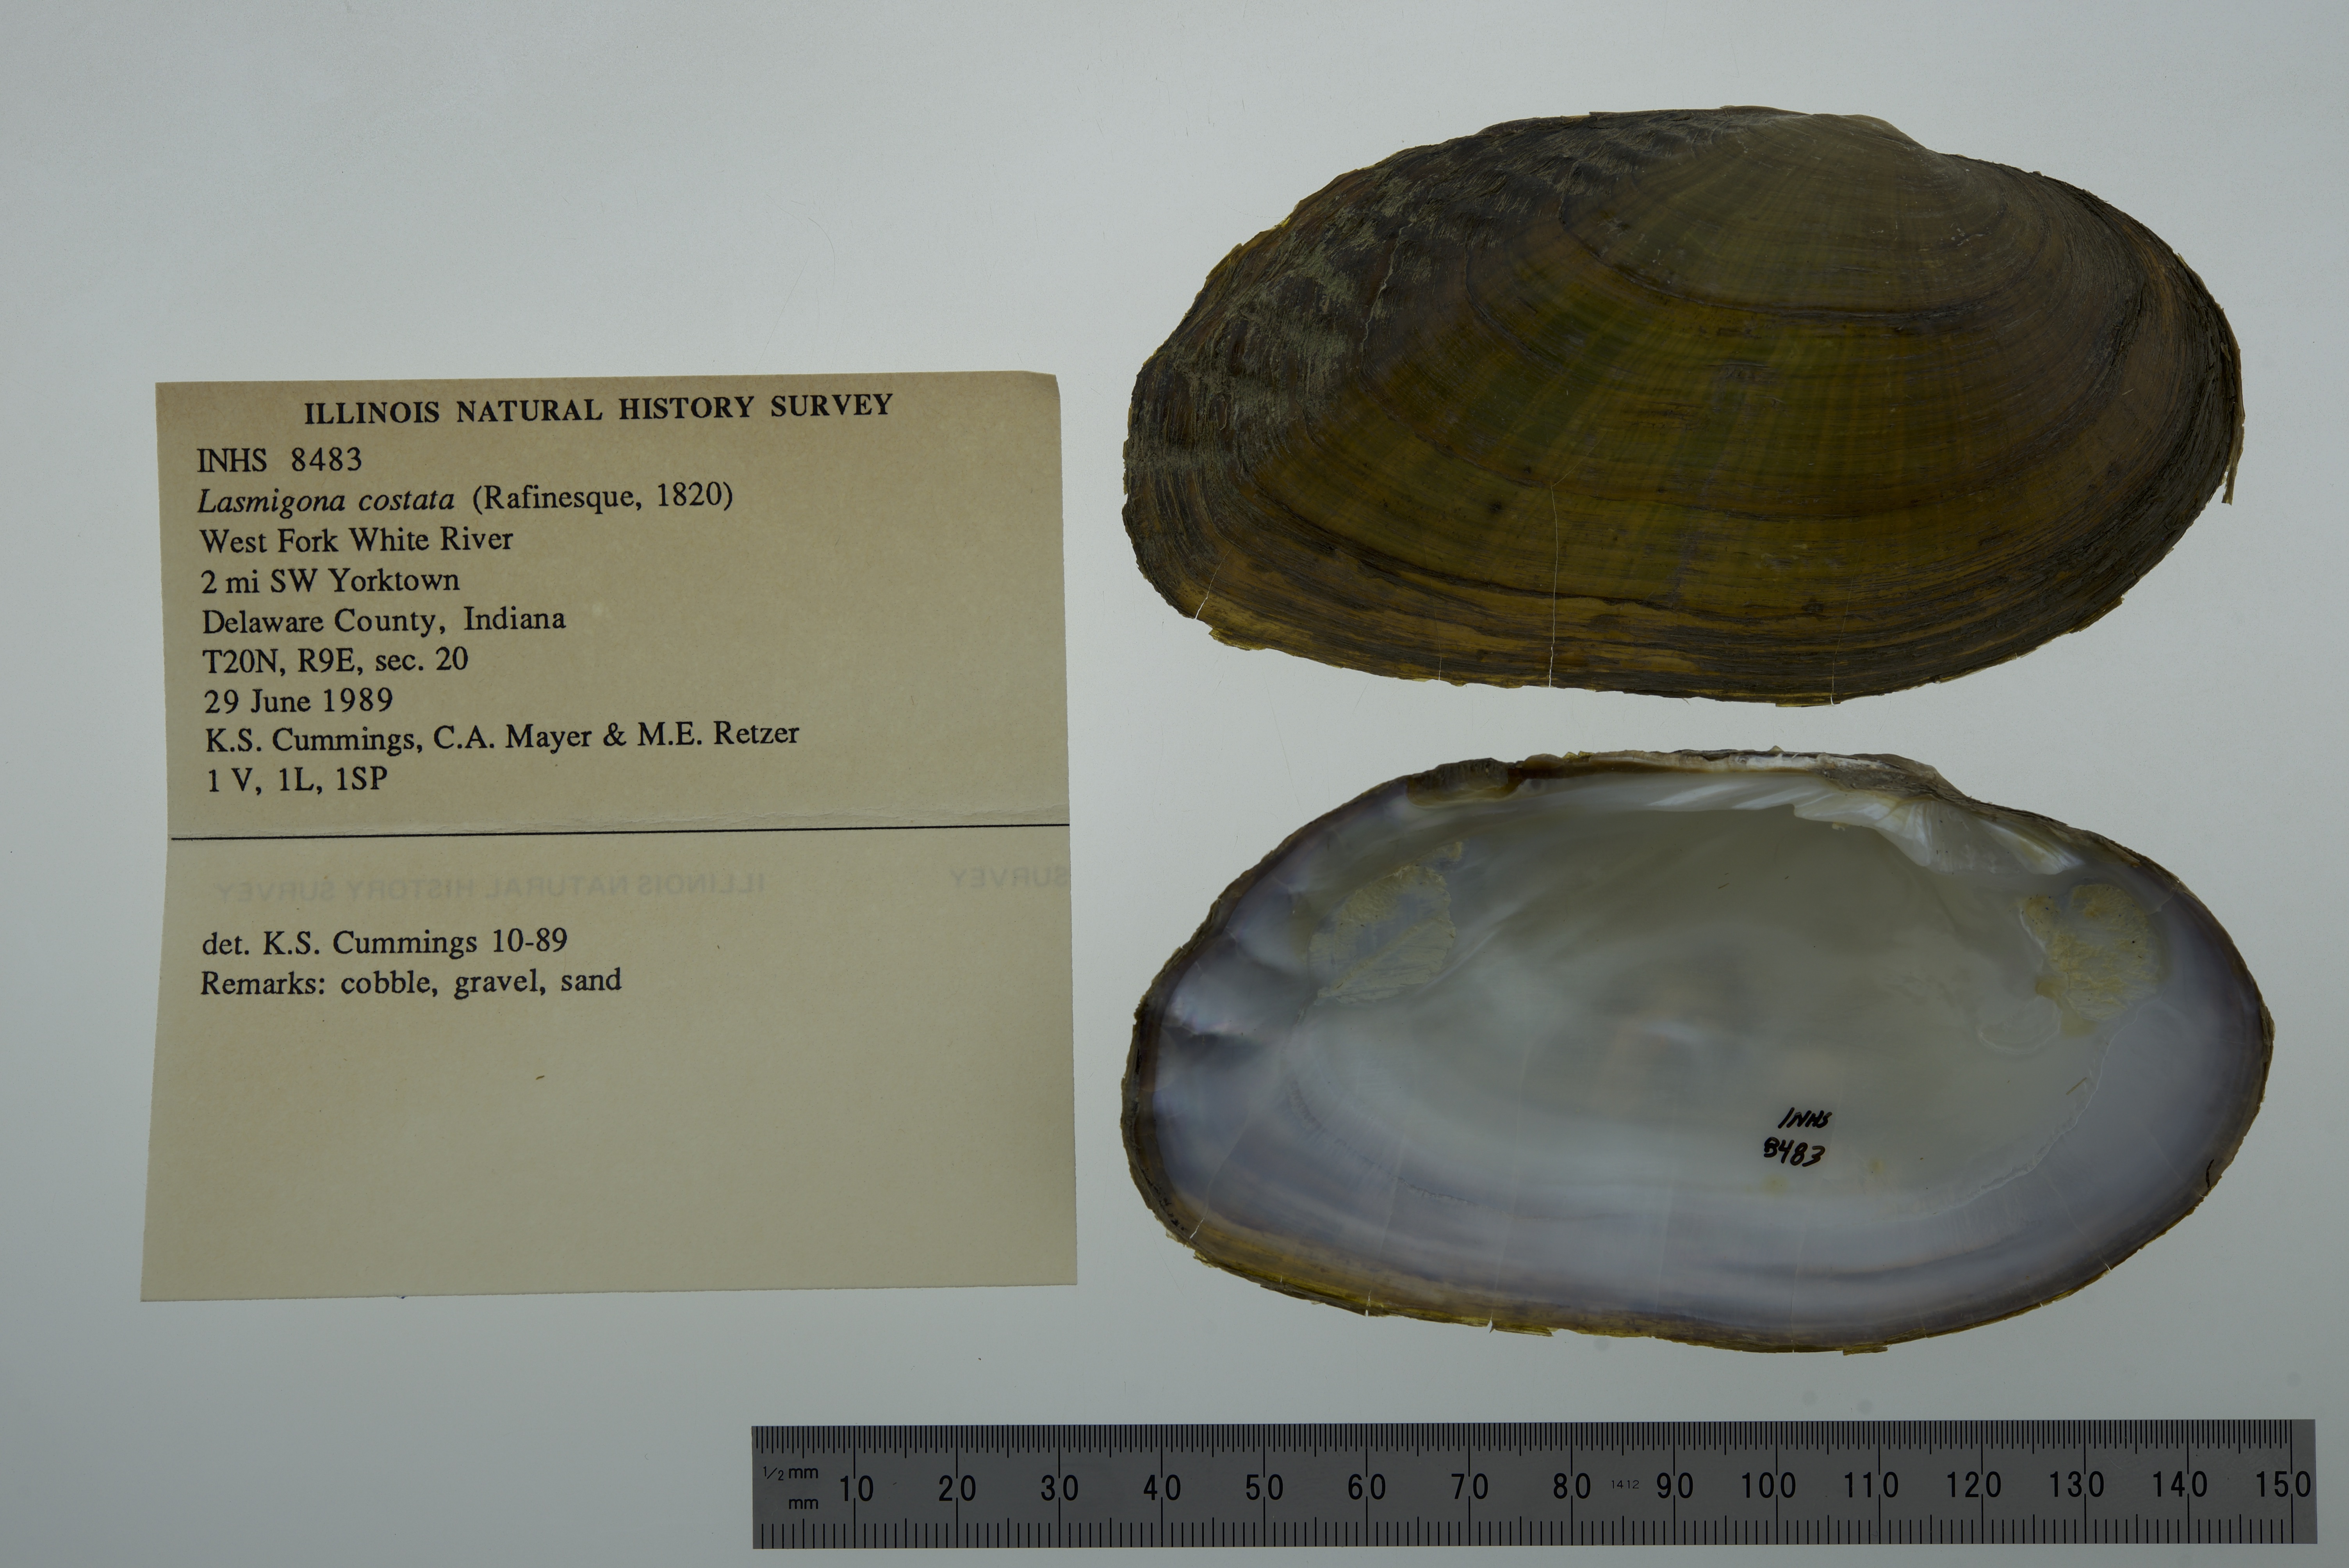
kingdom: Animalia
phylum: Mollusca
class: Bivalvia
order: Unionida
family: Unionidae
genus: Lasmigona
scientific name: Lasmigona costata
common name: Flutedshell
